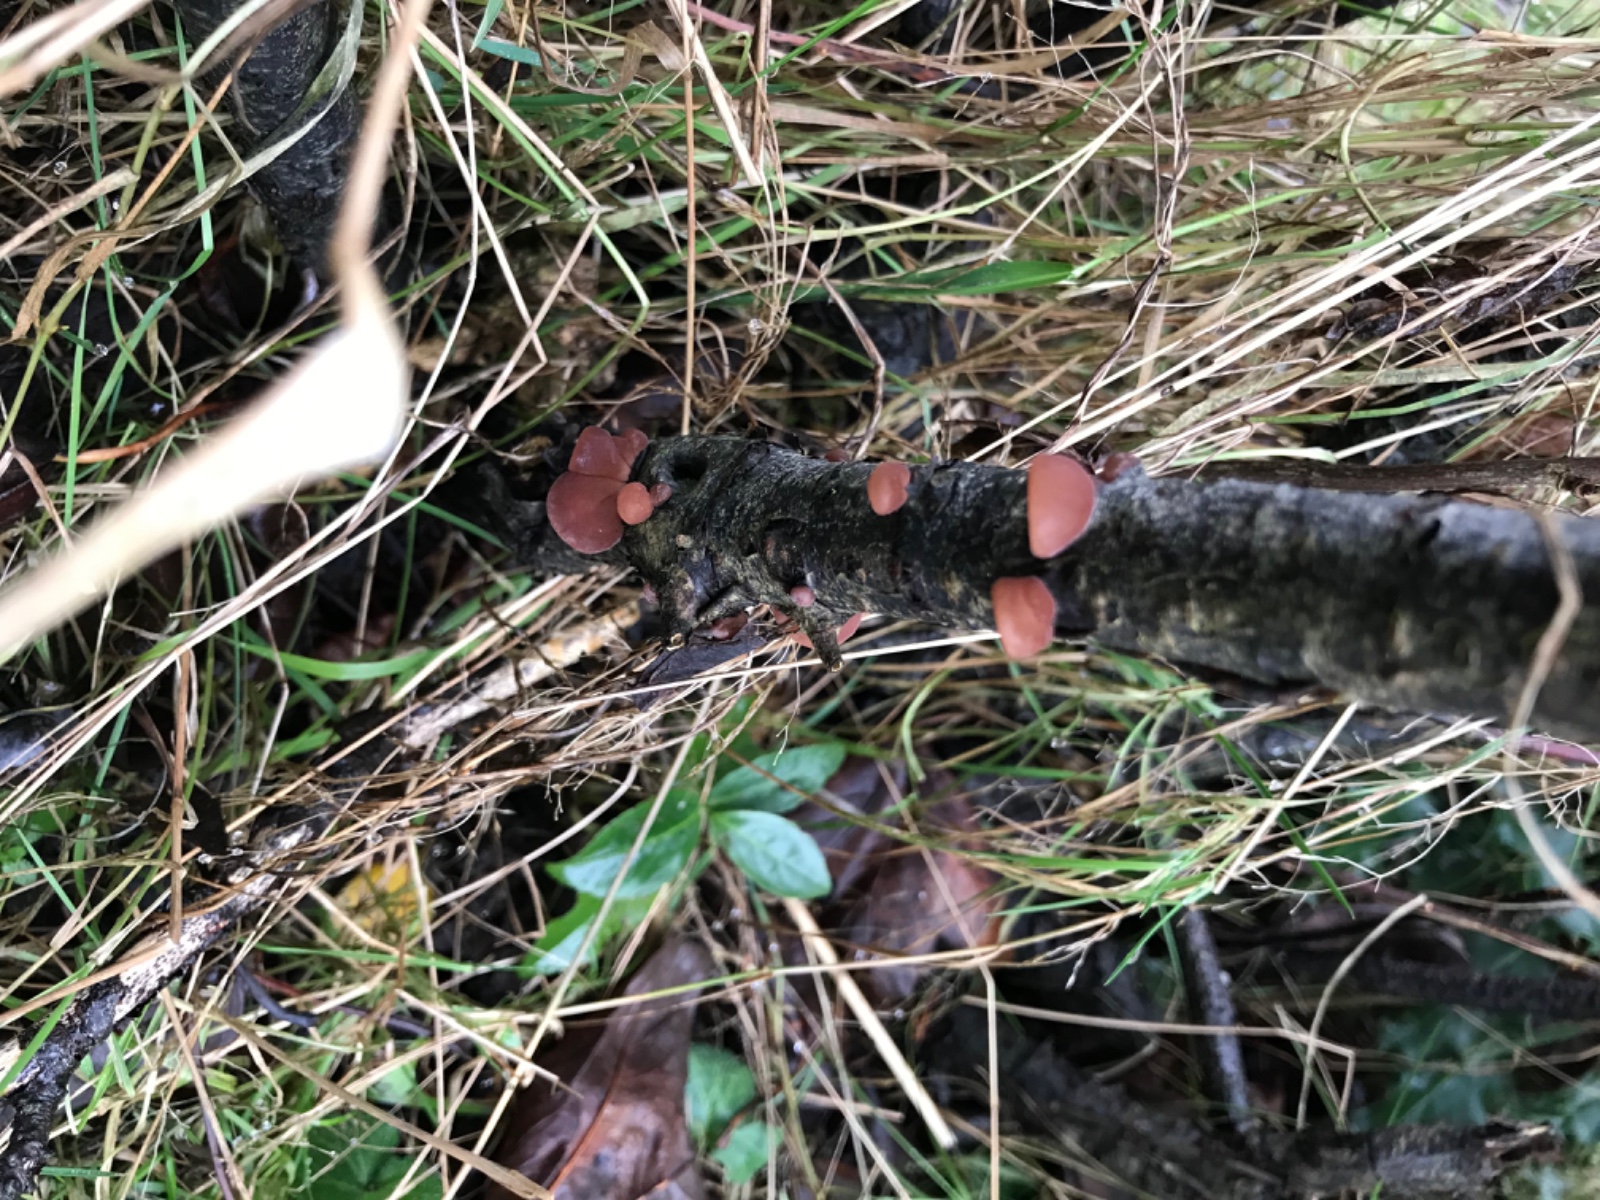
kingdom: Fungi
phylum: Basidiomycota
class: Agaricomycetes
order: Auriculariales
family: Auriculariaceae
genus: Auricularia
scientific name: Auricularia auricula-judae
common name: almindelig judasøre
